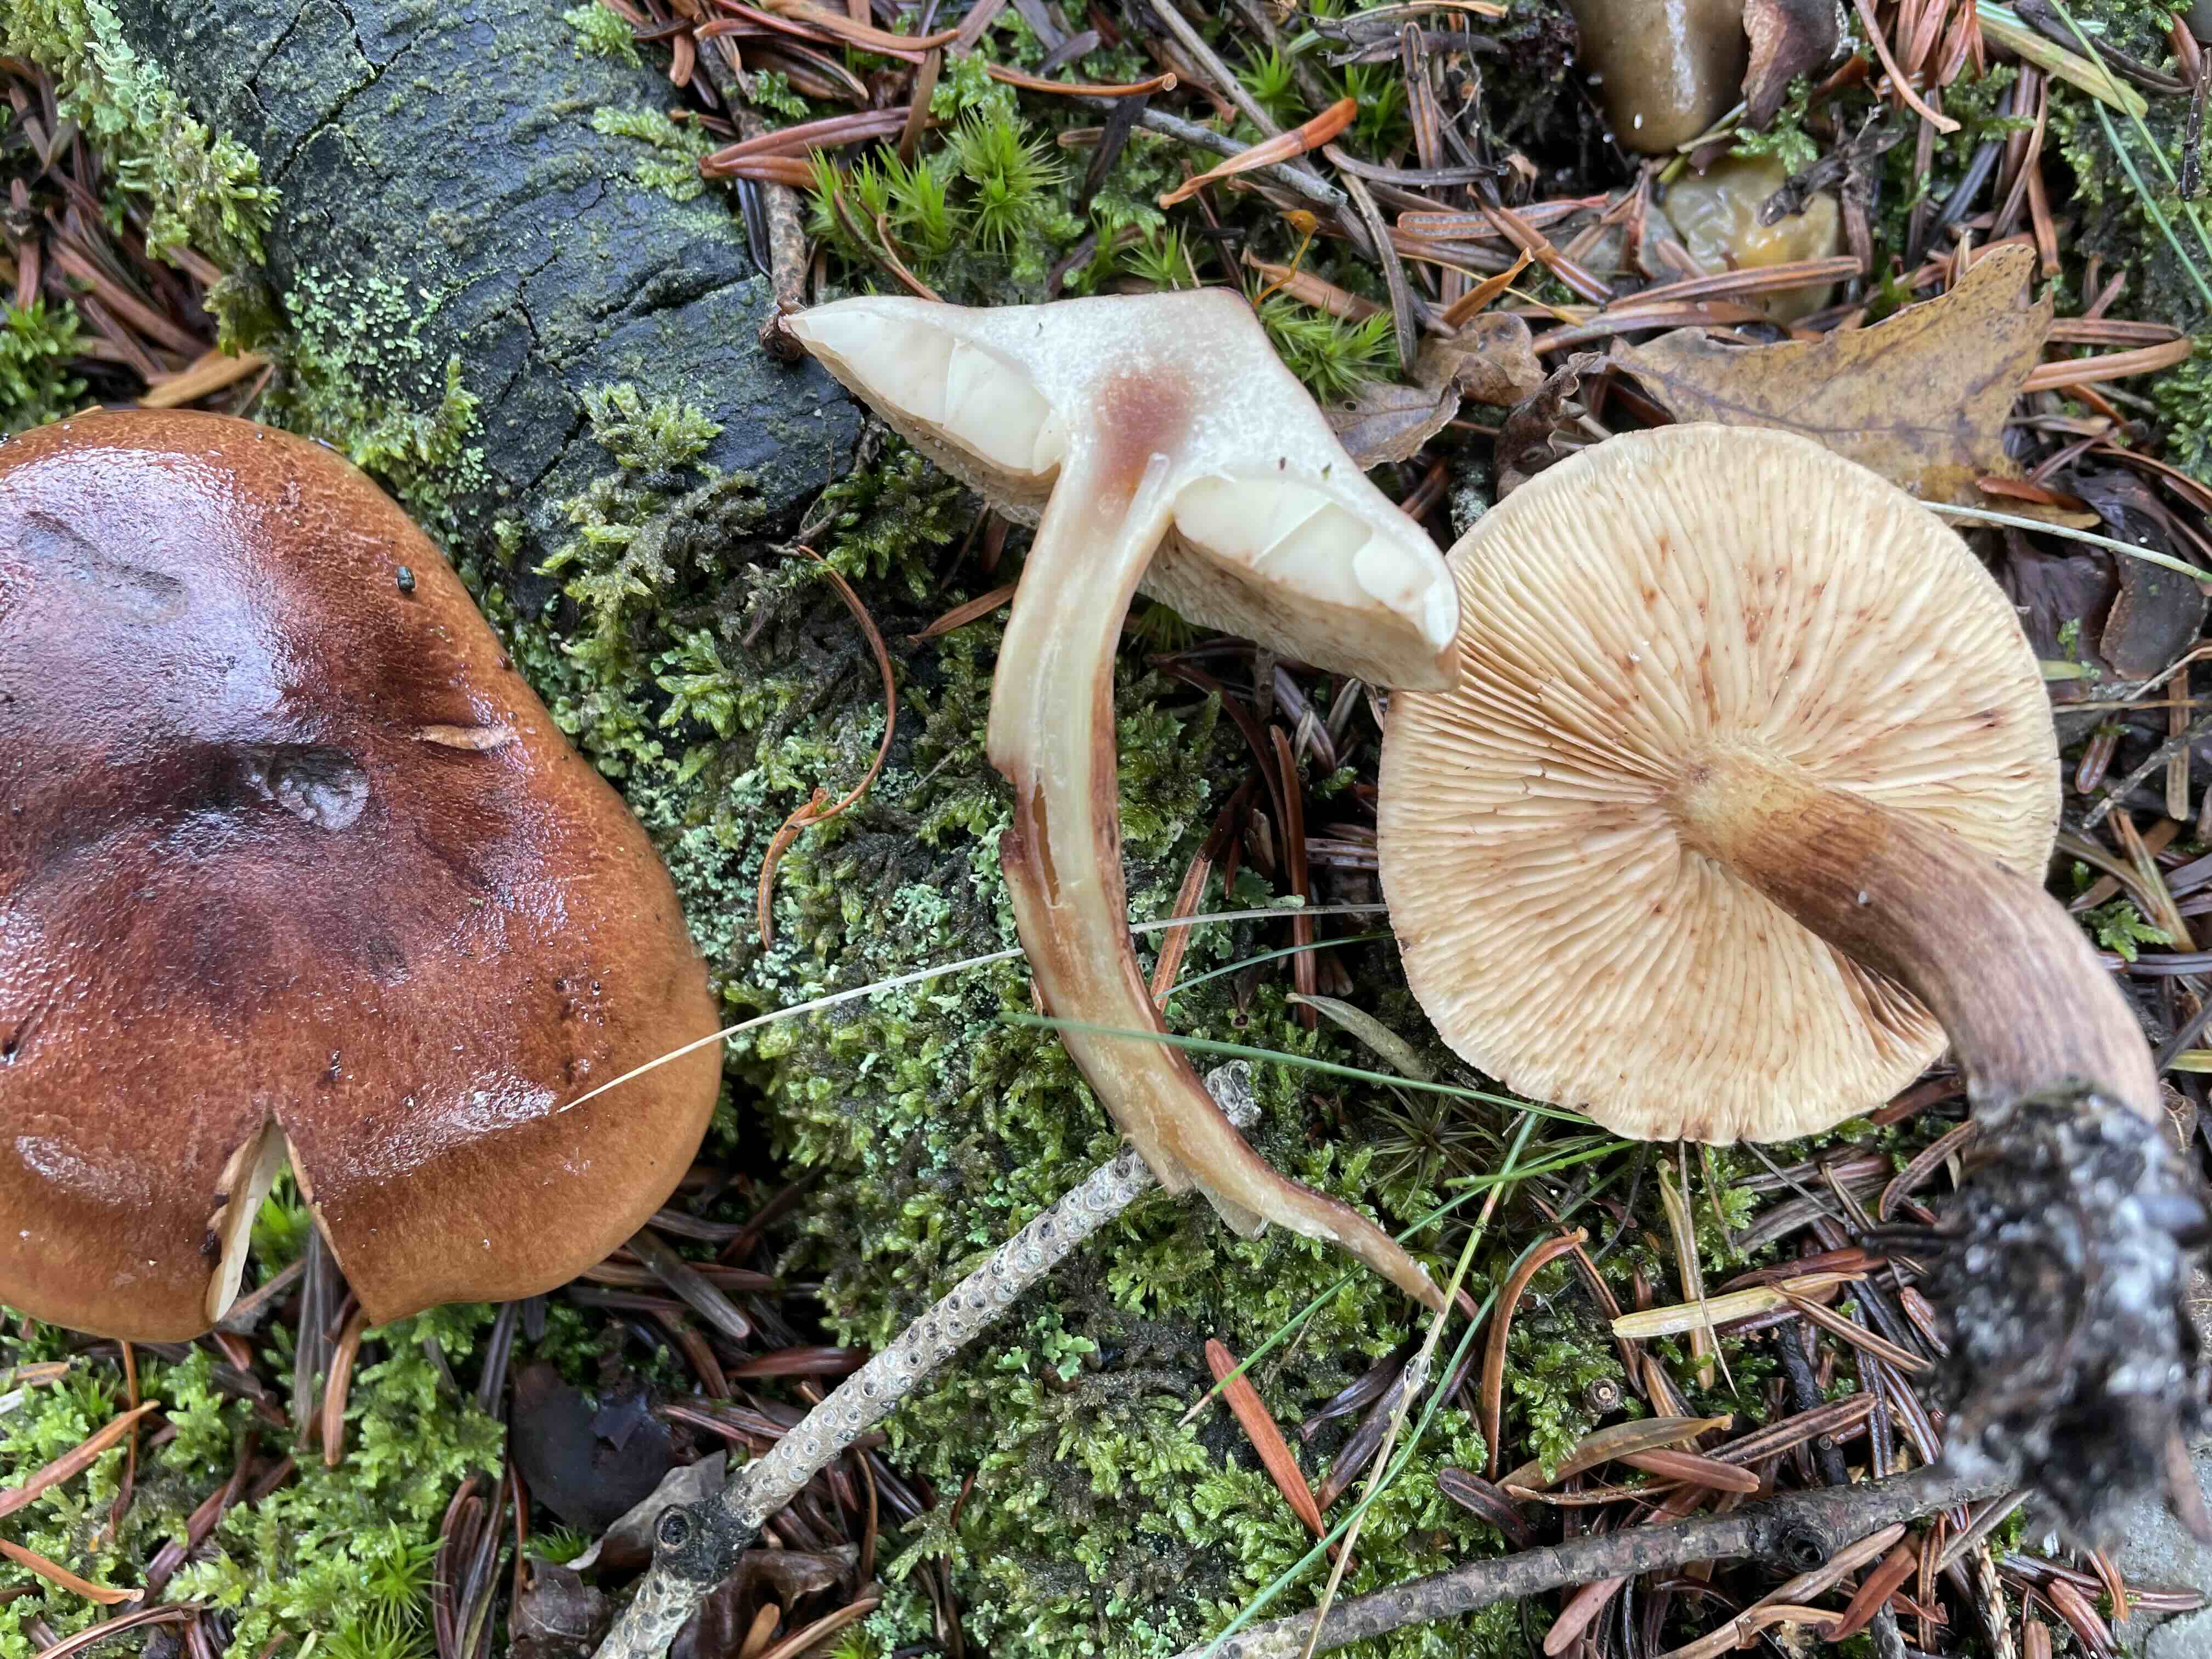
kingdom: Fungi
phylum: Basidiomycota
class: Agaricomycetes
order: Agaricales
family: Tricholomataceae
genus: Tricholoma
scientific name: Tricholoma fulvum
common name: birke-ridderhat
